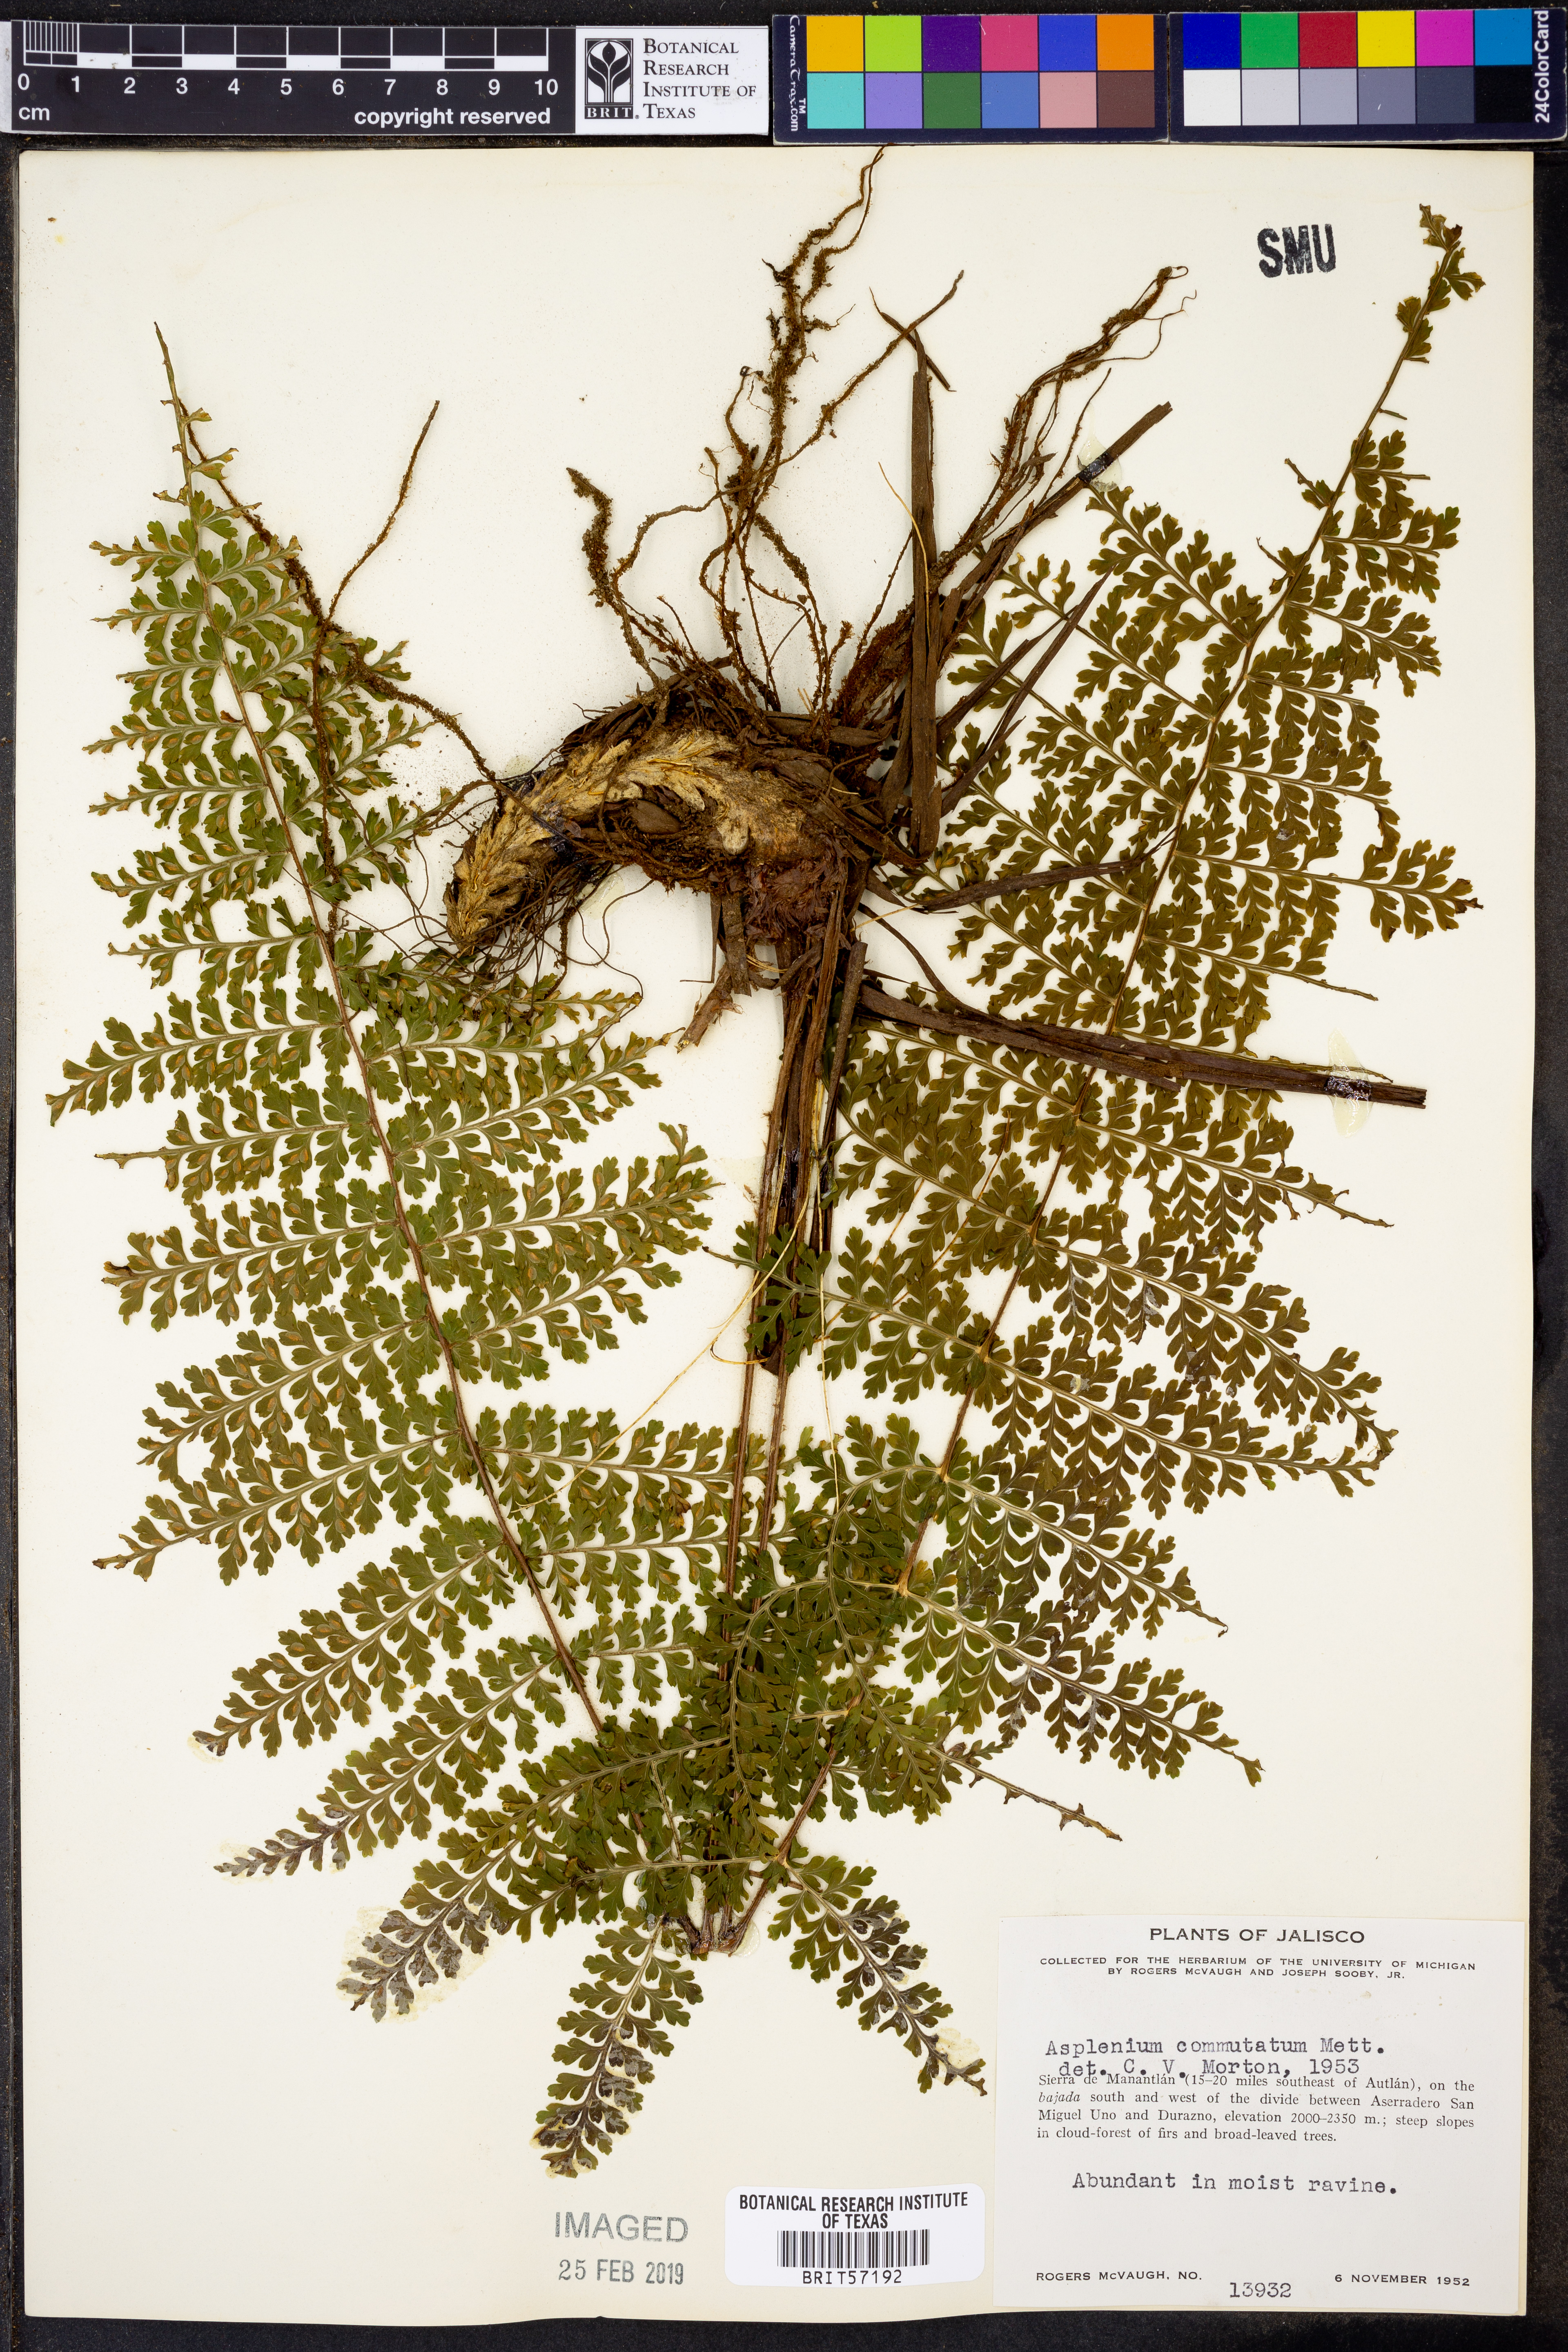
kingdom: Plantae
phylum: Tracheophyta
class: Polypodiopsida
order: Polypodiales
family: Aspleniaceae
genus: Asplenium
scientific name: Asplenium blepharophorum
